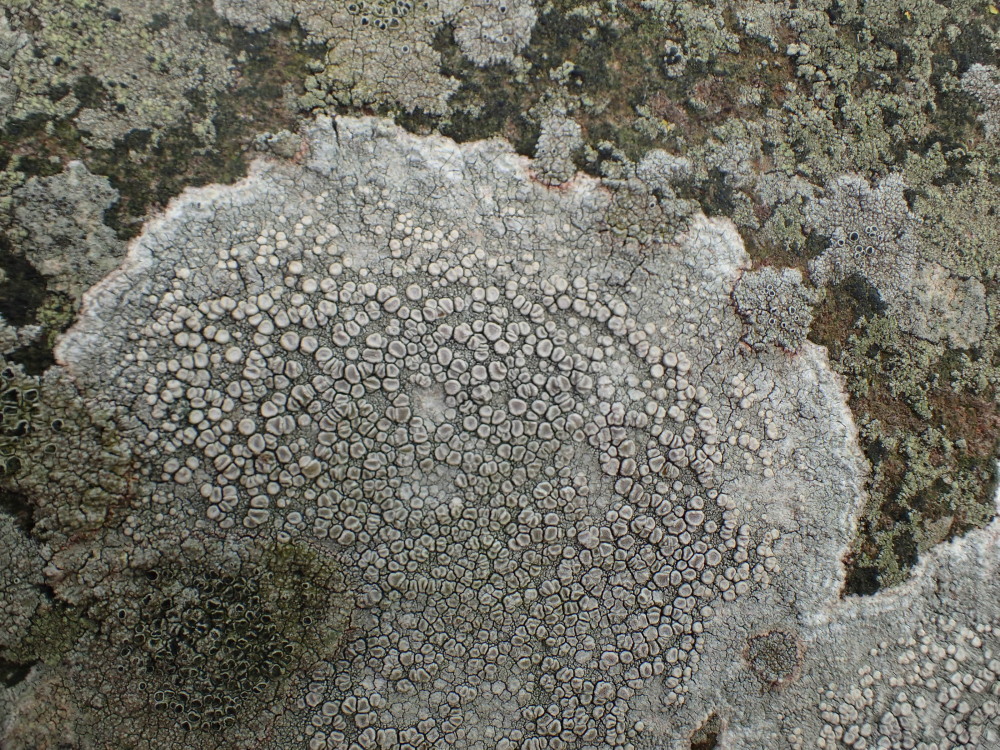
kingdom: Fungi
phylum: Ascomycota
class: Lecanoromycetes
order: Pertusariales
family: Ochrolechiaceae
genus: Ochrolechia
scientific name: Ochrolechia parella
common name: almindelig blegskivelav
